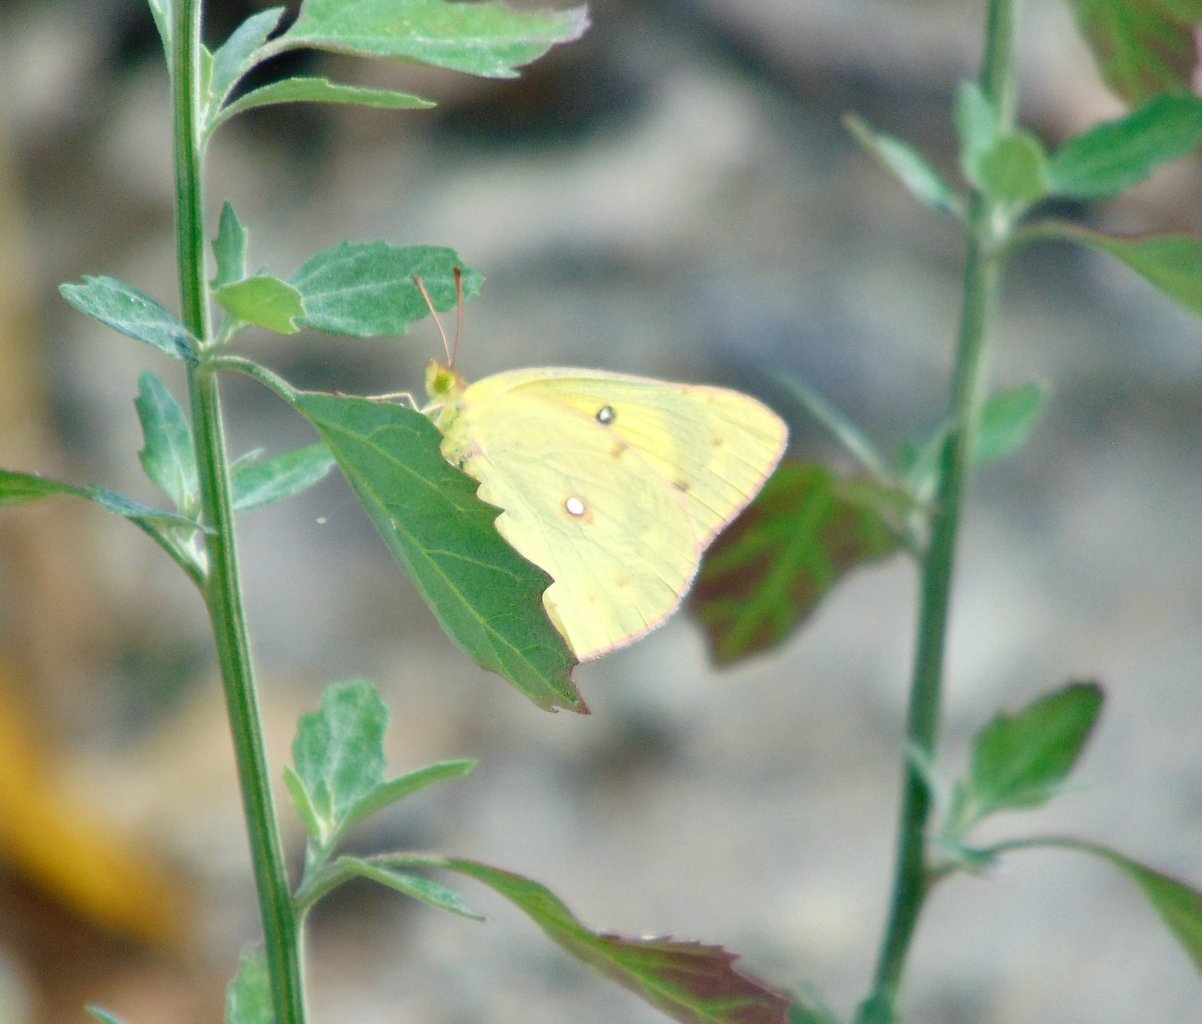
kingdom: Animalia
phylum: Arthropoda
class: Insecta
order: Lepidoptera
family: Pieridae
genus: Colias
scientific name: Colias philodice
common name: Clouded Sulphur
